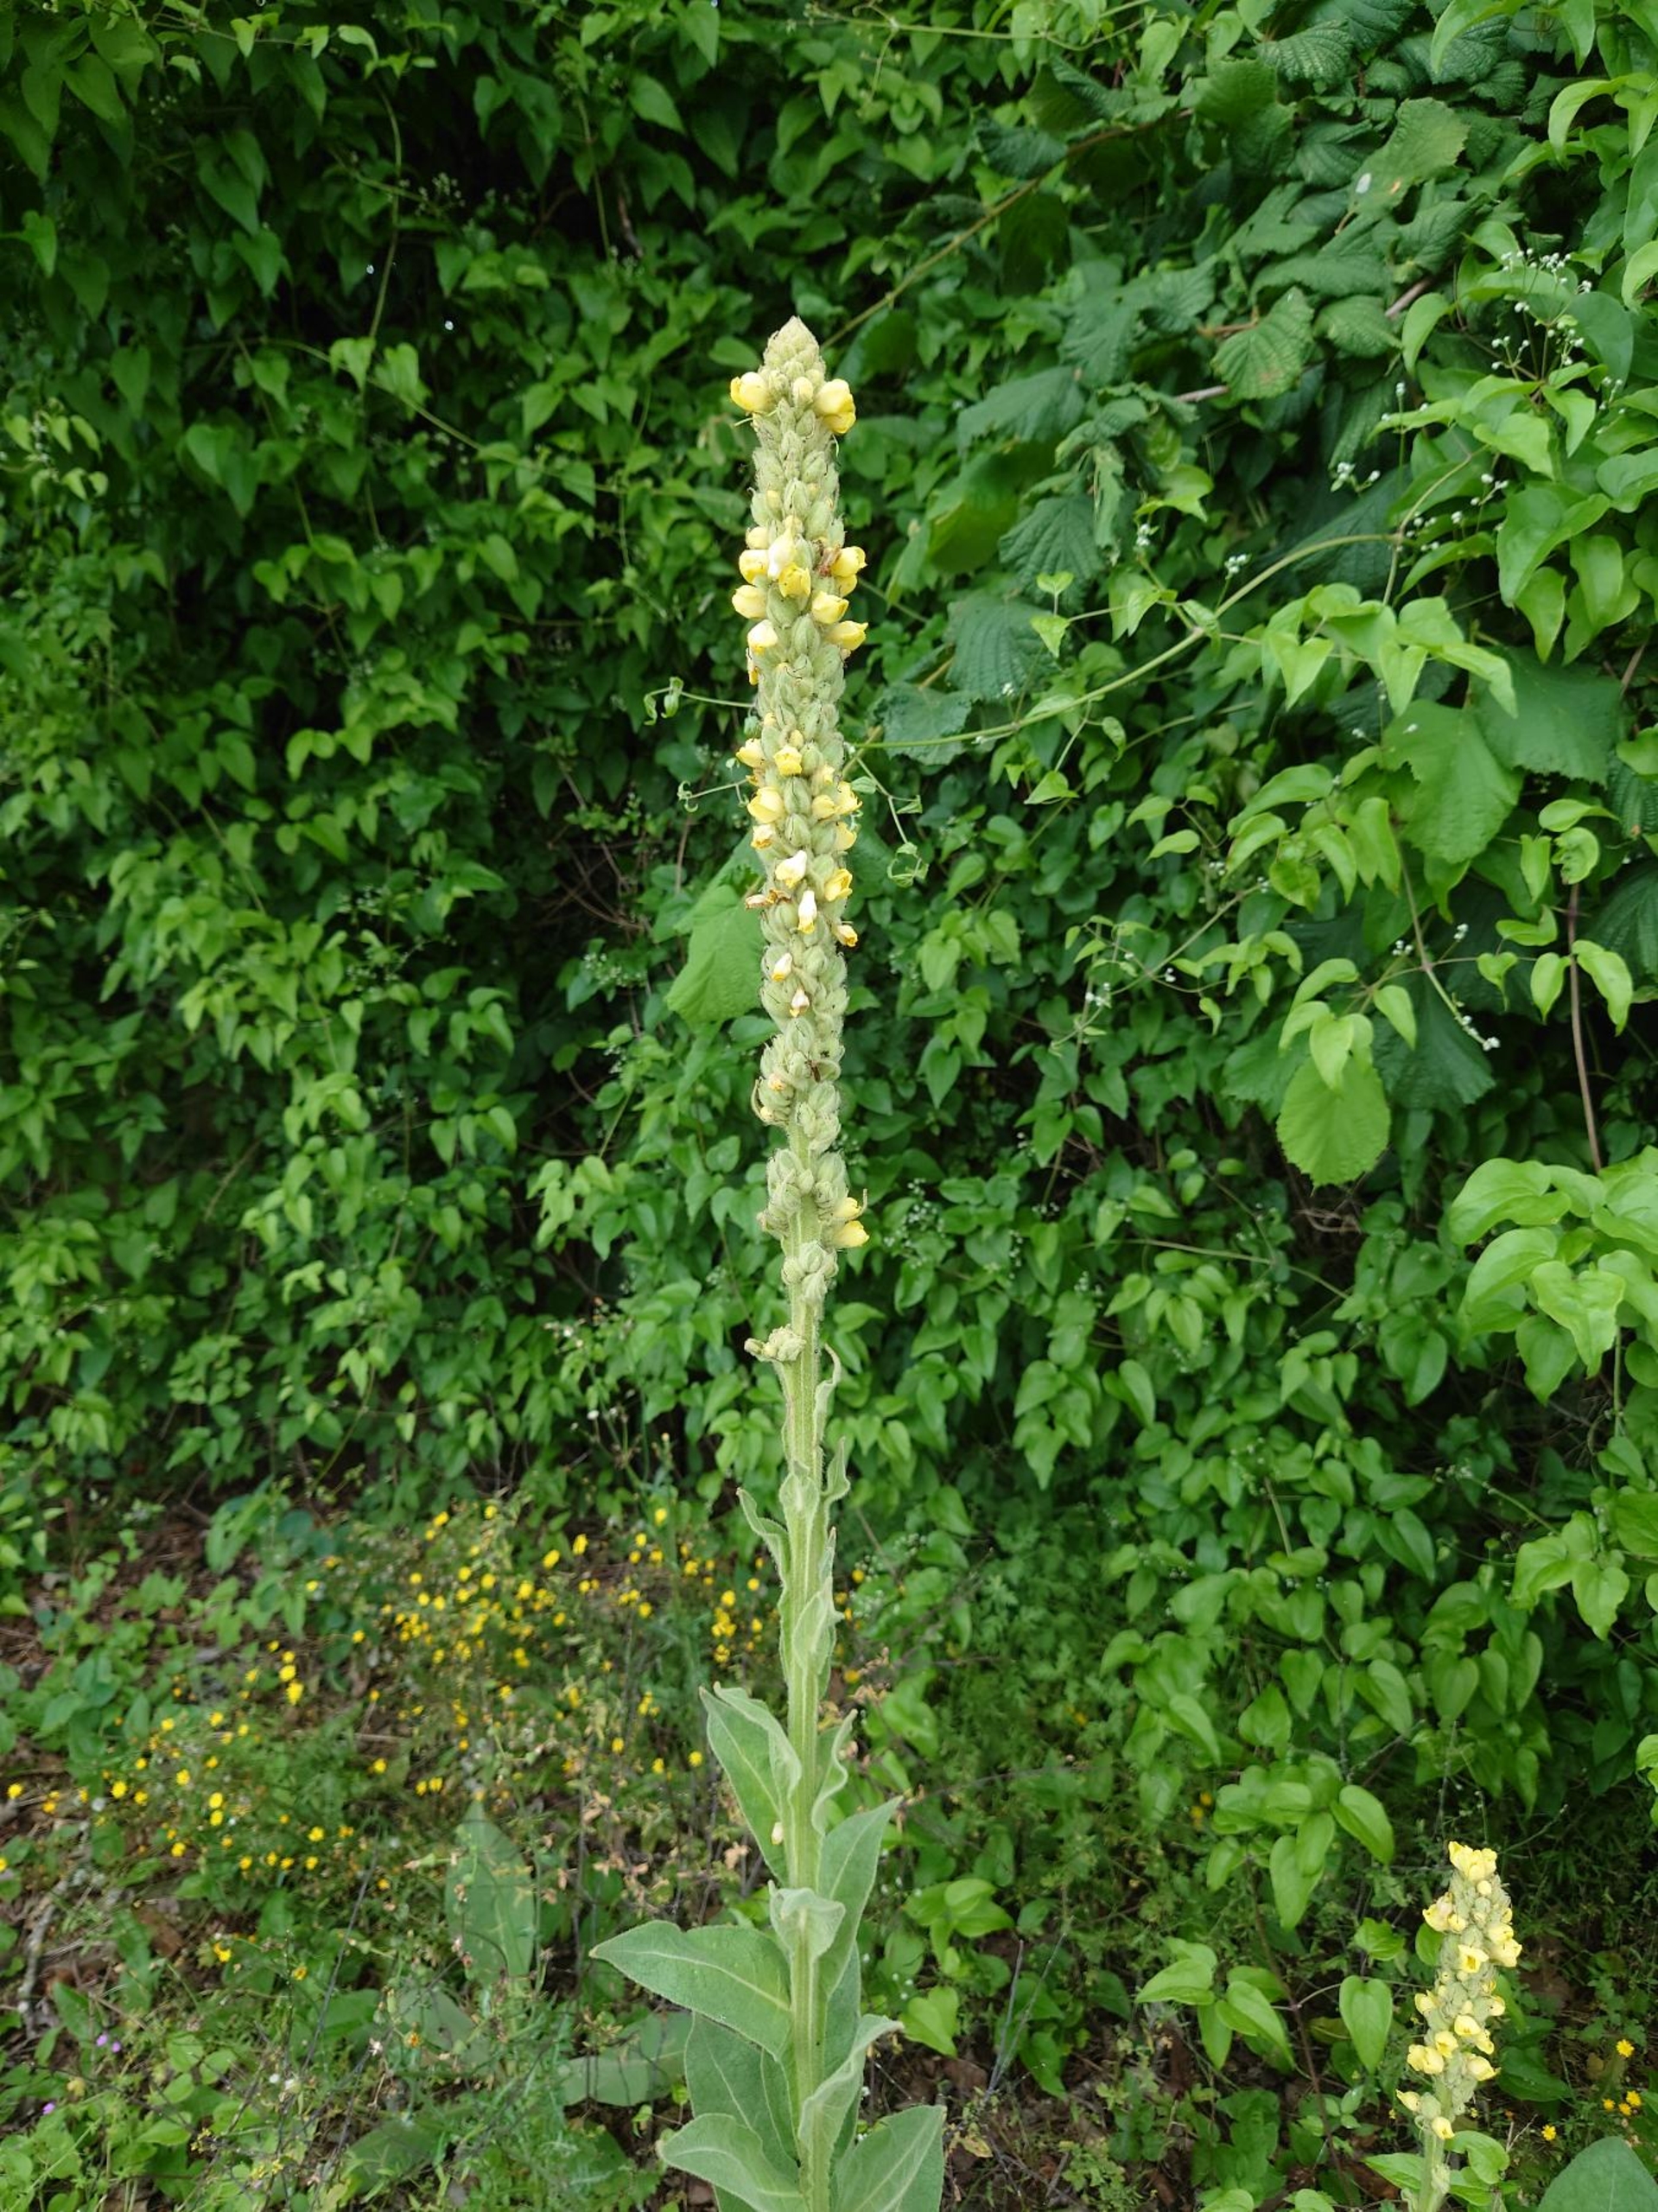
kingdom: Plantae
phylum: Tracheophyta
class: Magnoliopsida
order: Lamiales
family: Scrophulariaceae
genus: Verbascum
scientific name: Verbascum thapsus
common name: Filtbladet kongelys
